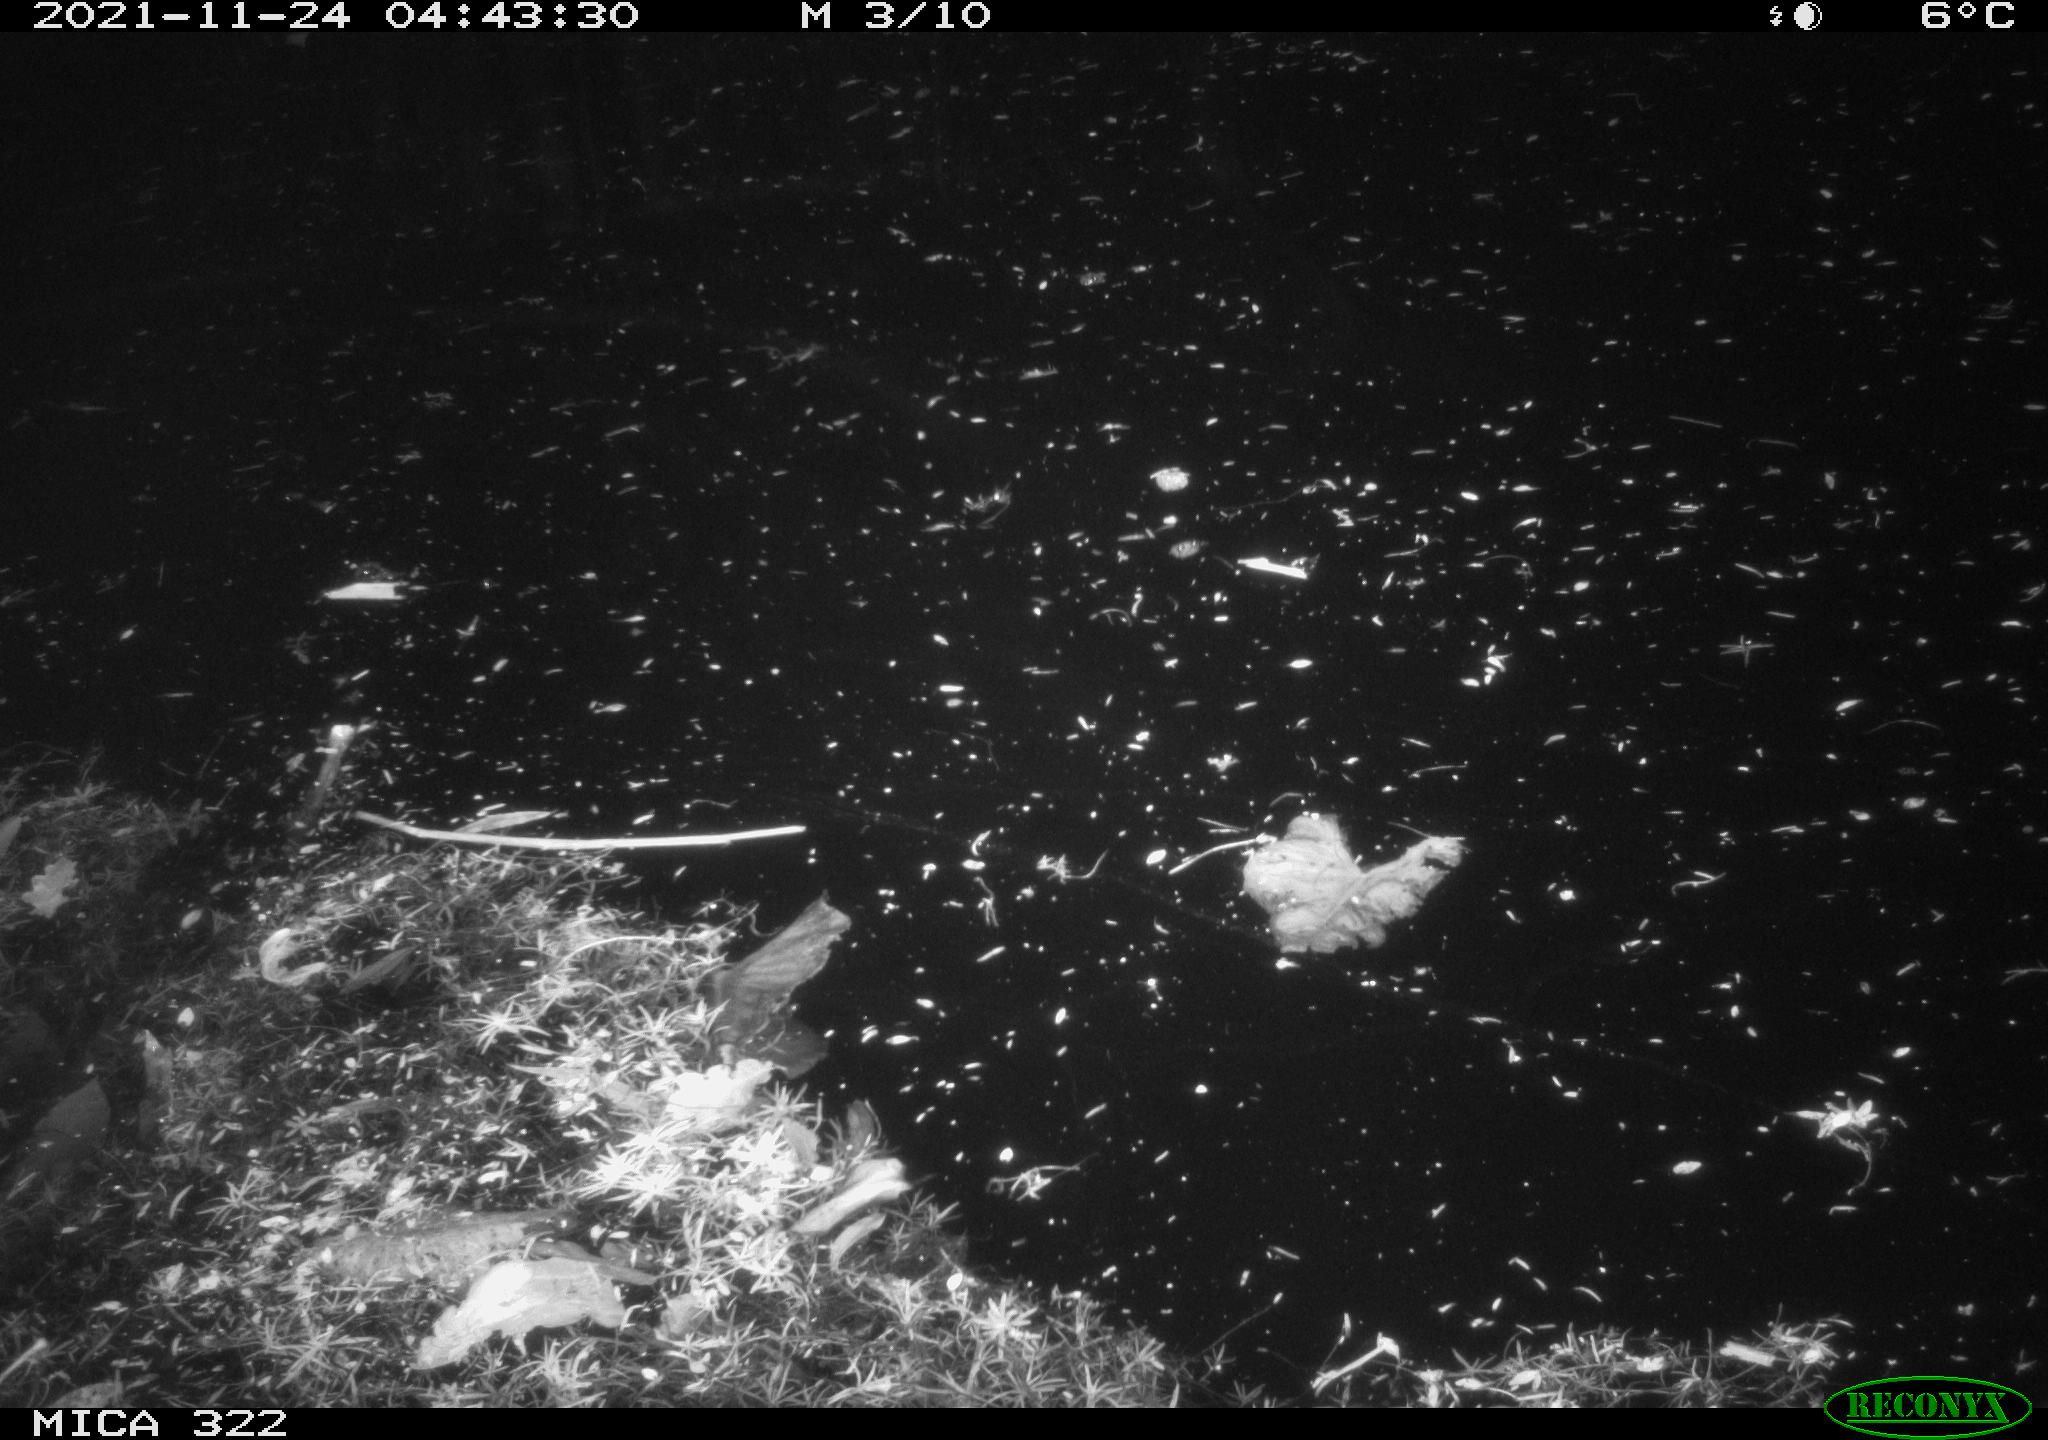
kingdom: Animalia
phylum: Chordata
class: Mammalia
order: Rodentia
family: Cricetidae
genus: Ondatra
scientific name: Ondatra zibethicus
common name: Muskrat
